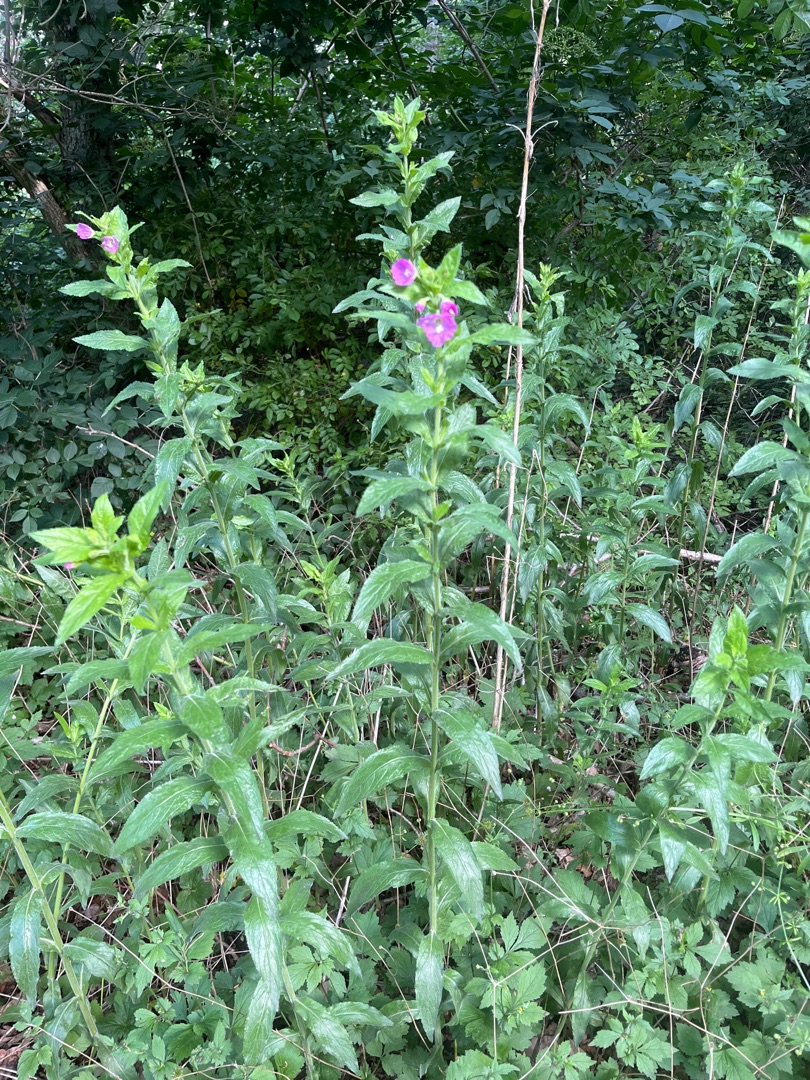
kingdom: Plantae
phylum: Tracheophyta
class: Magnoliopsida
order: Myrtales
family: Onagraceae
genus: Epilobium
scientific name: Epilobium hirsutum
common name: Lådden dueurt
